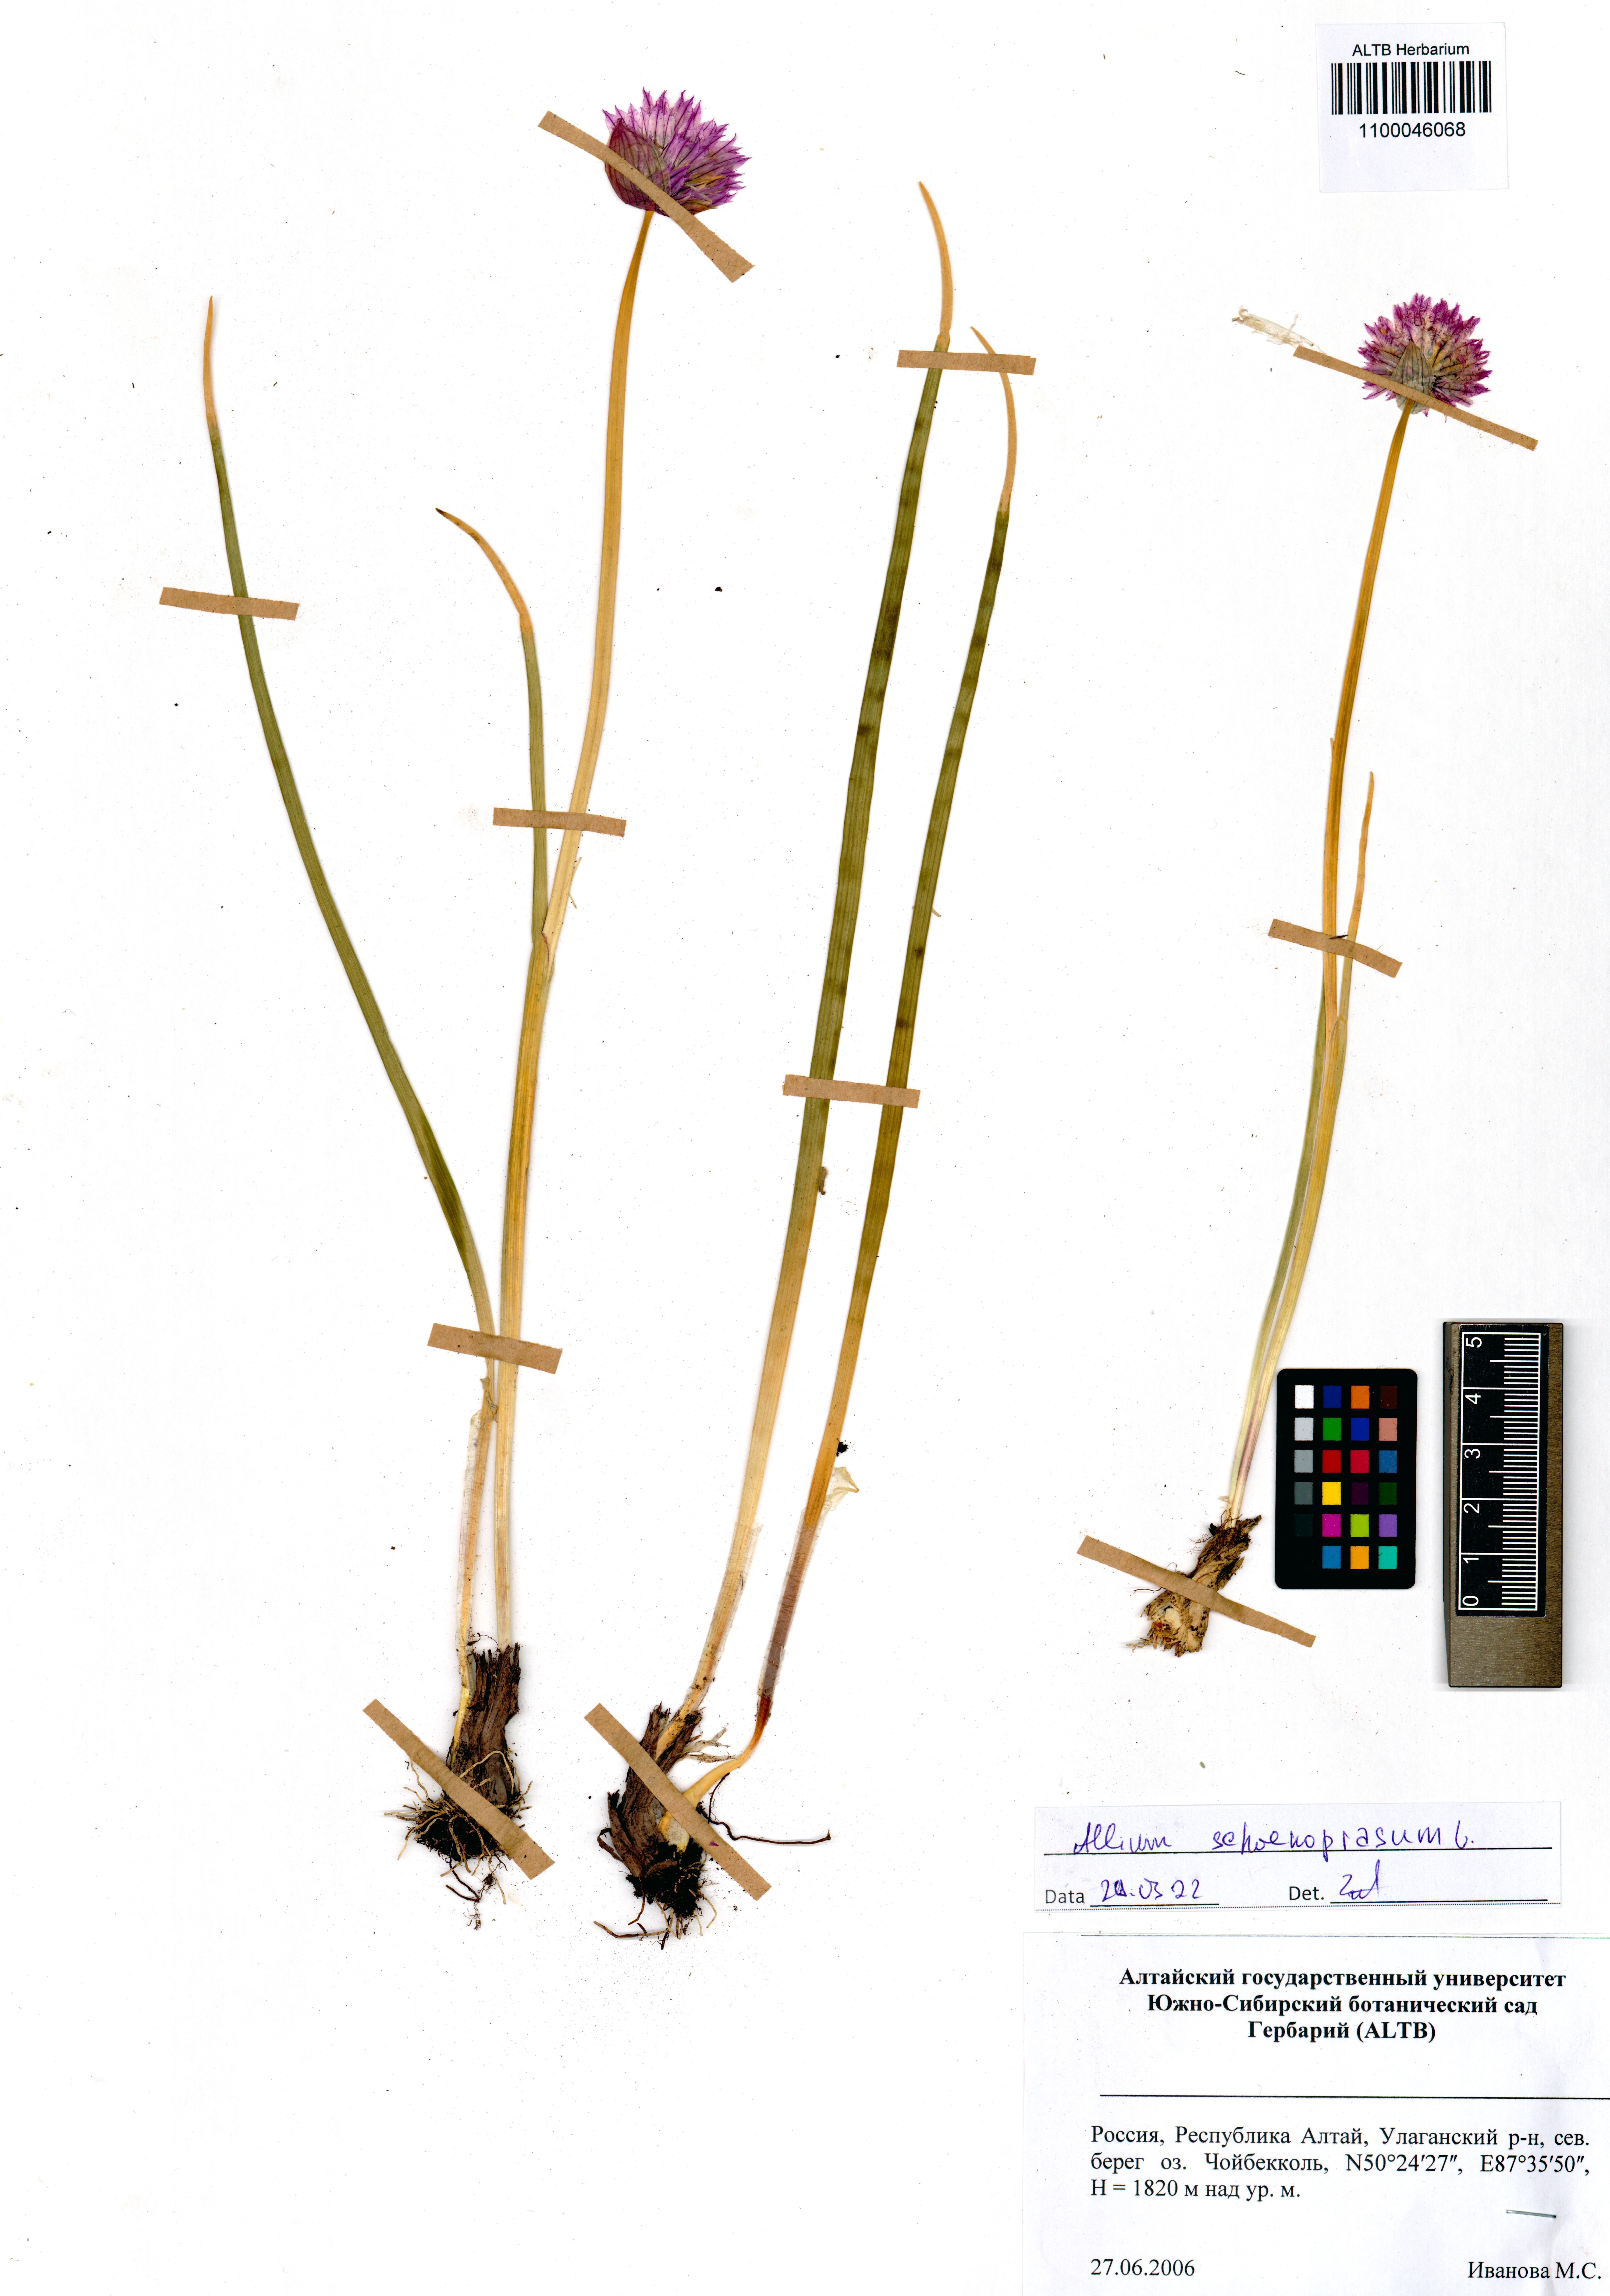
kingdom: Plantae
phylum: Tracheophyta
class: Liliopsida
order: Asparagales
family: Amaryllidaceae
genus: Allium
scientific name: Allium schoenoprasum
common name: Chives
